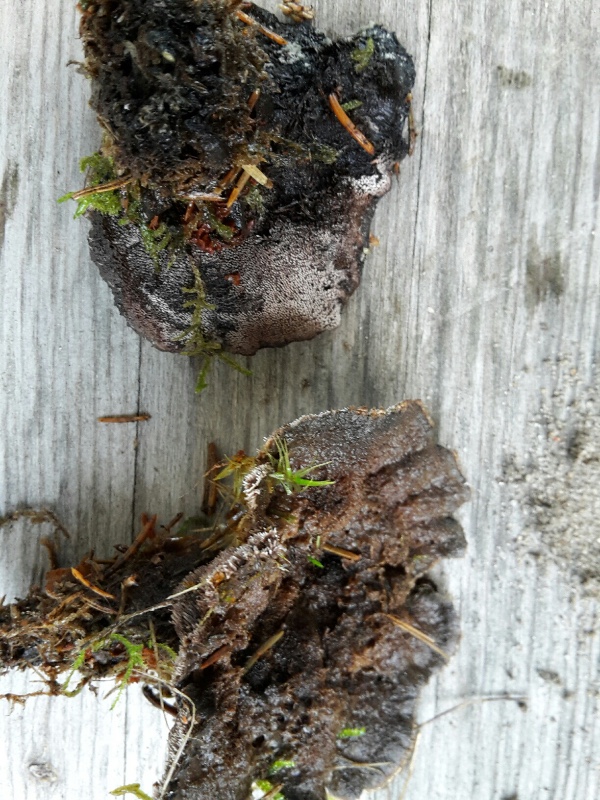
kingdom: Fungi
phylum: Basidiomycota
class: Agaricomycetes
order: Thelephorales
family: Thelephoraceae
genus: Phellodon
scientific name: Phellodon
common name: mørk duftpigsvamp
